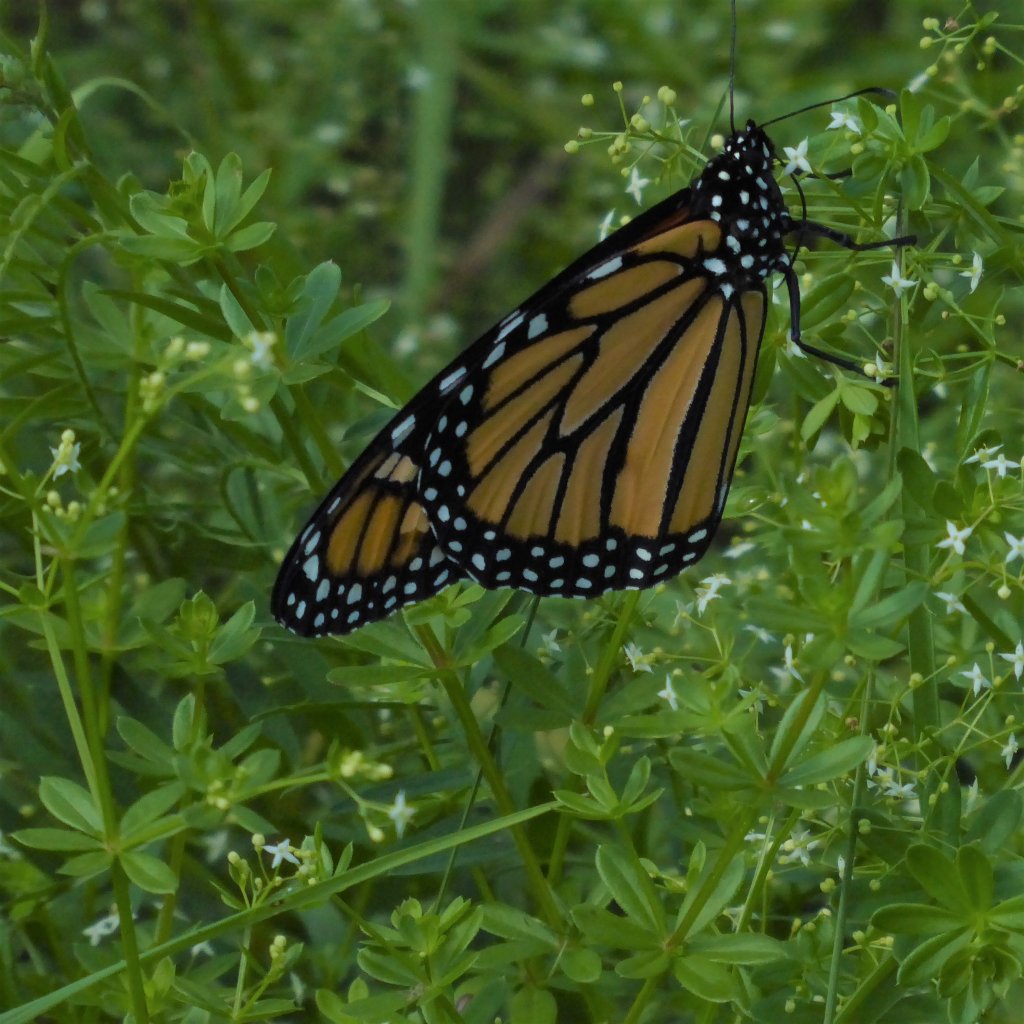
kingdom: Animalia
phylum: Arthropoda
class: Insecta
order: Lepidoptera
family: Nymphalidae
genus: Danaus
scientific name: Danaus plexippus
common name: Monarch
